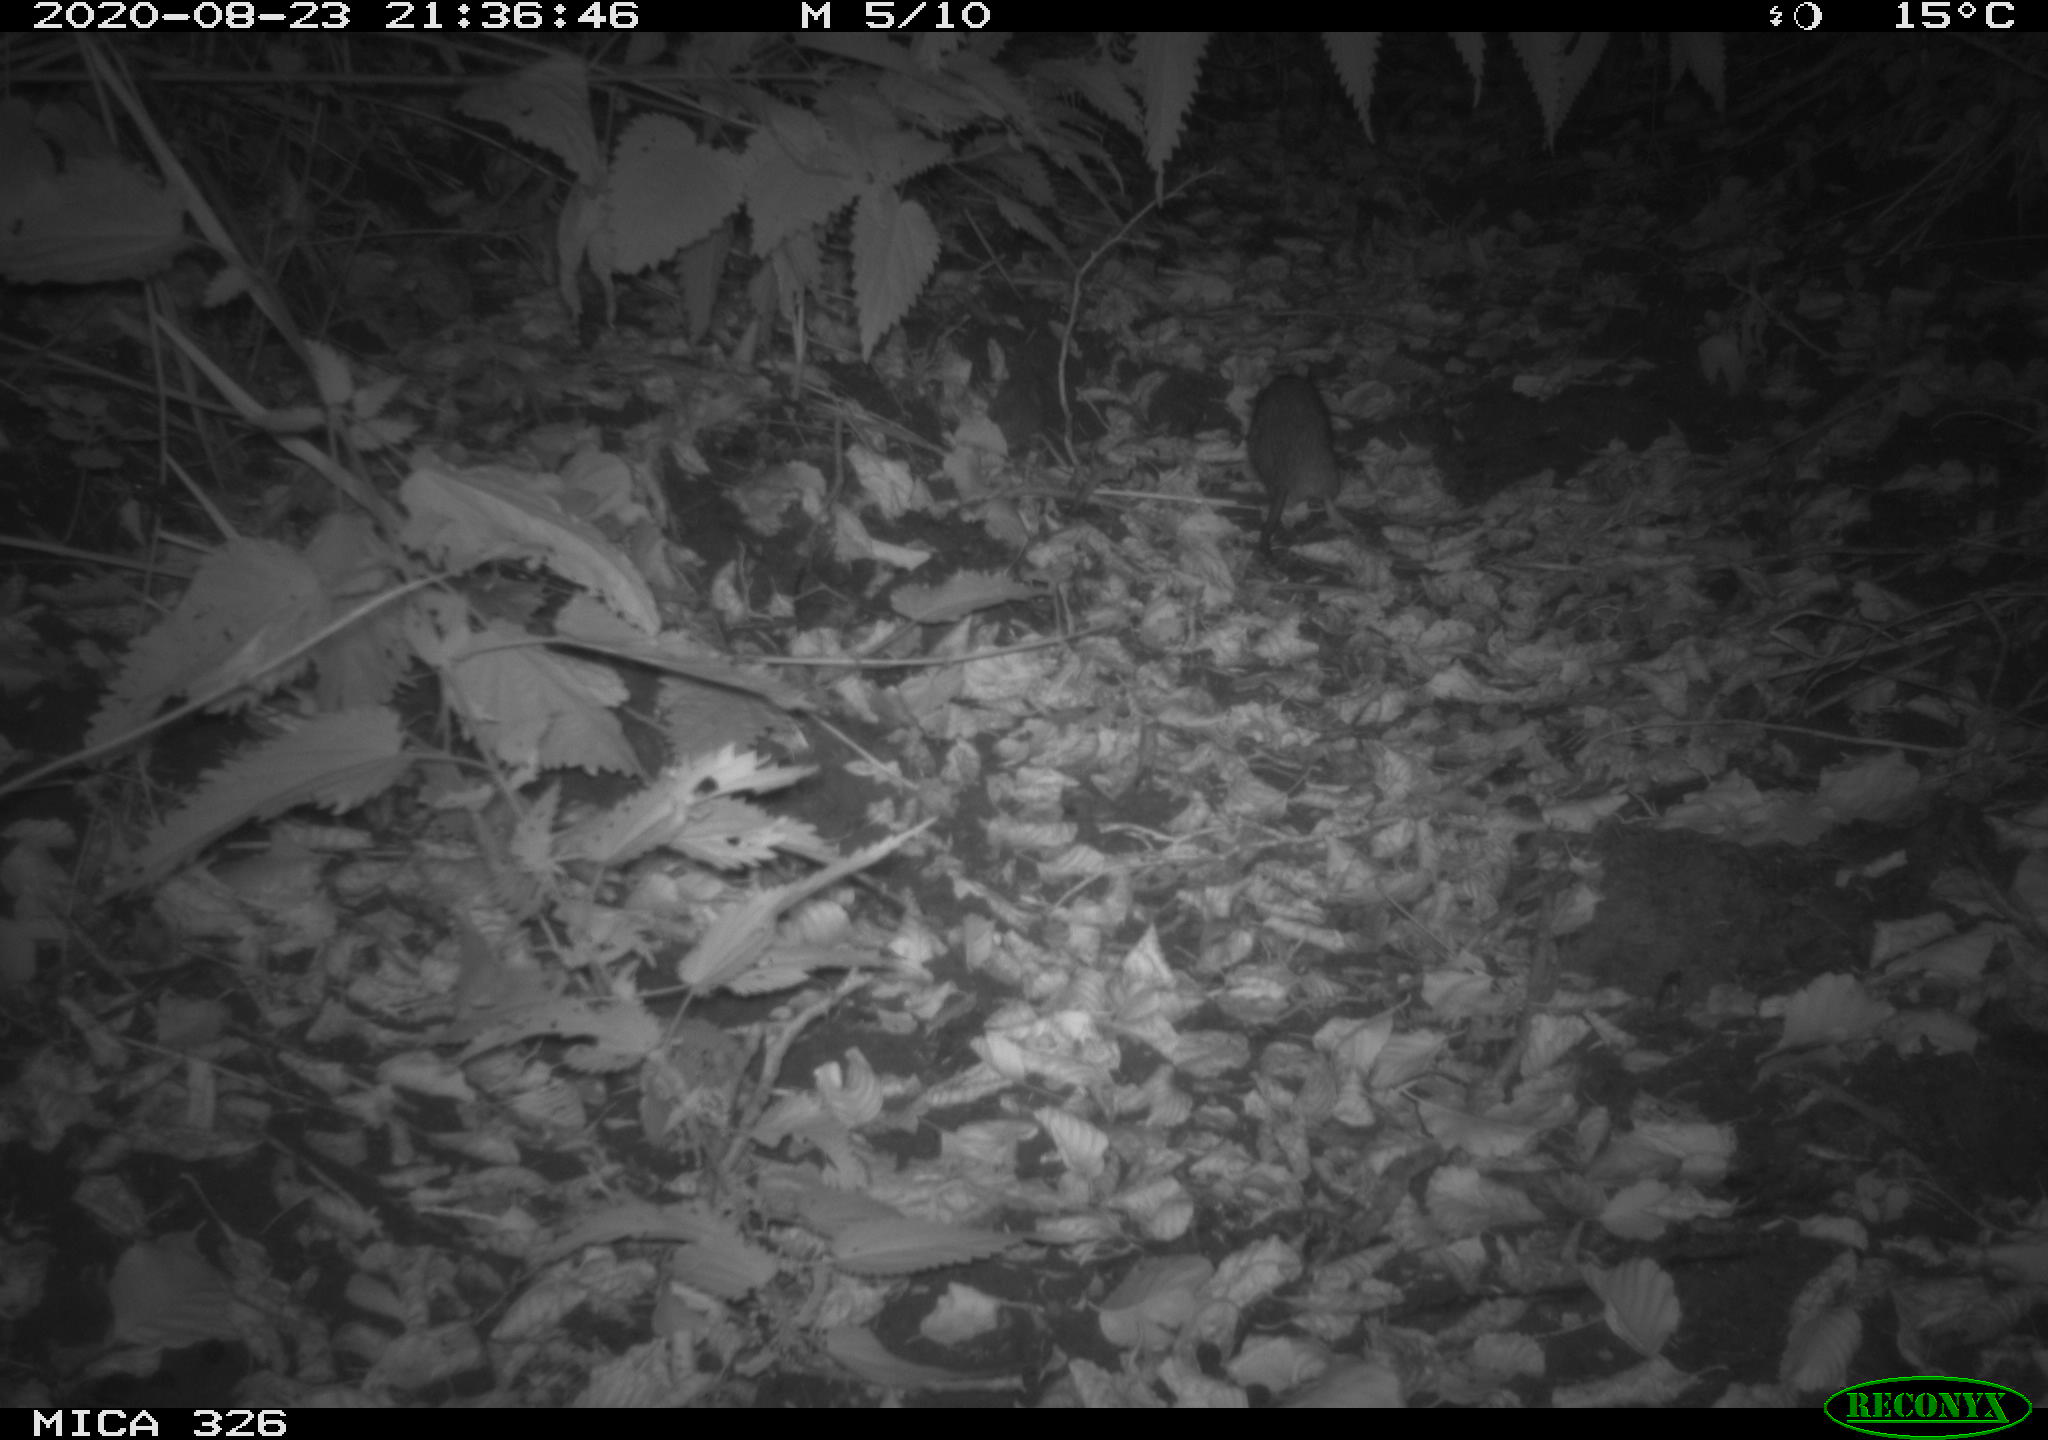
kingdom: Animalia
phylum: Chordata
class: Mammalia
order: Rodentia
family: Muridae
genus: Rattus
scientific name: Rattus norvegicus
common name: Brown rat
